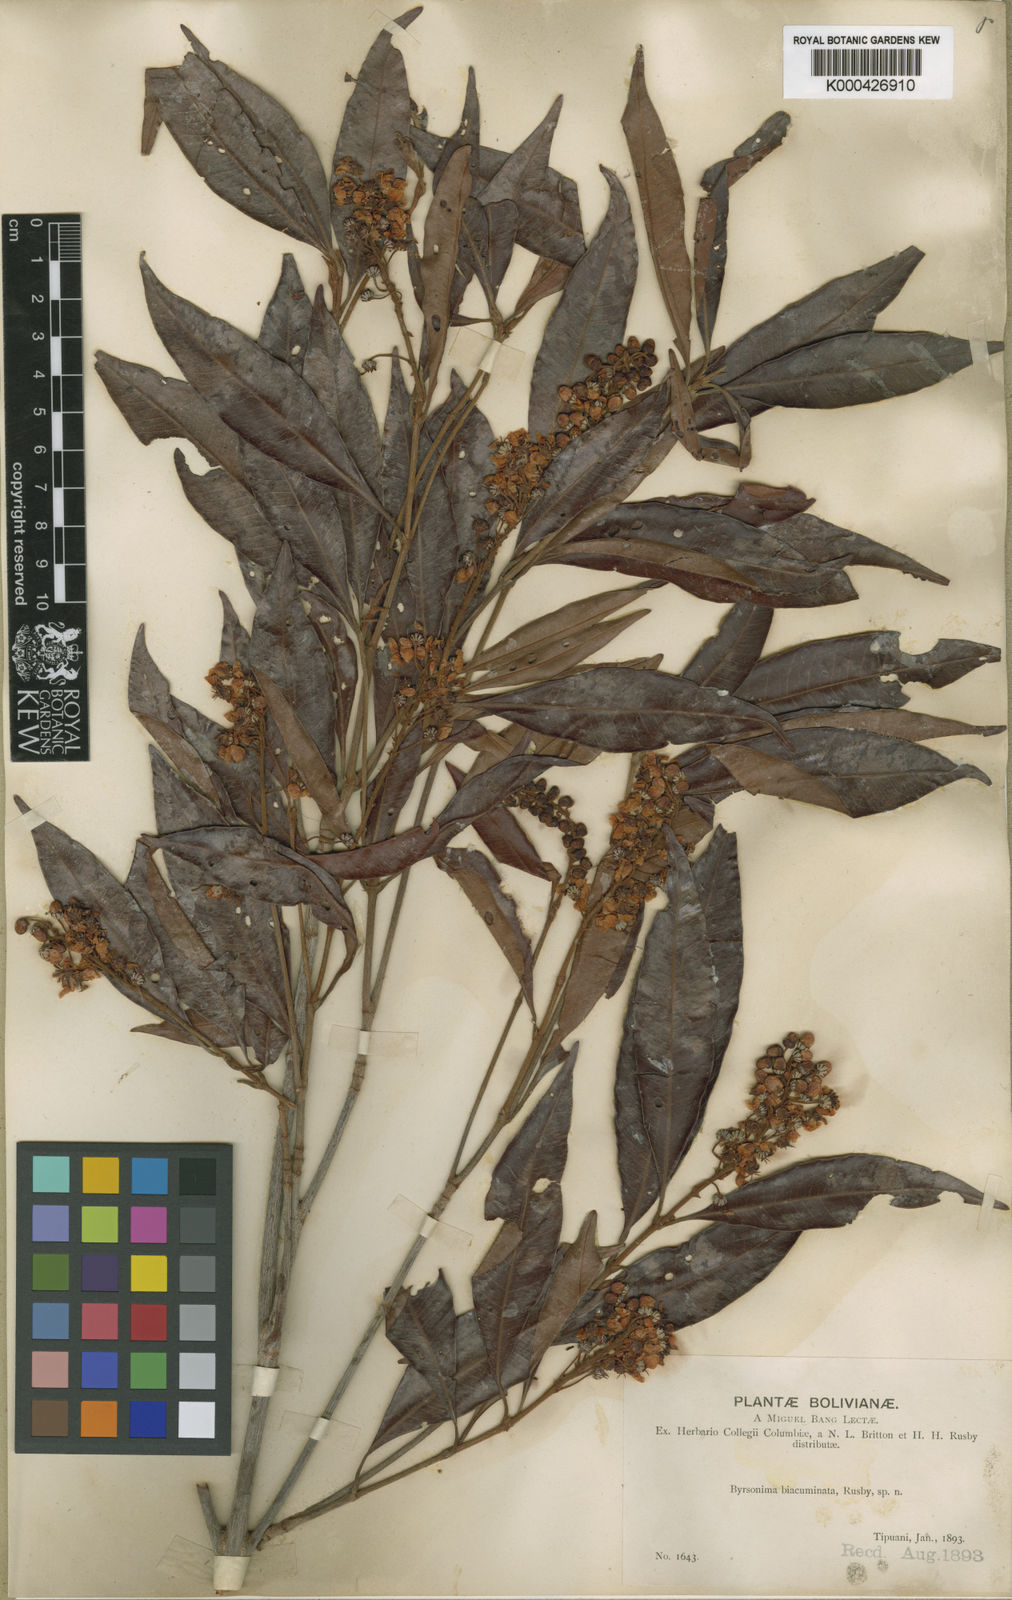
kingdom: Plantae
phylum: Tracheophyta
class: Magnoliopsida
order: Malpighiales
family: Malpighiaceae
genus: Byrsonima
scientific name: Byrsonima
